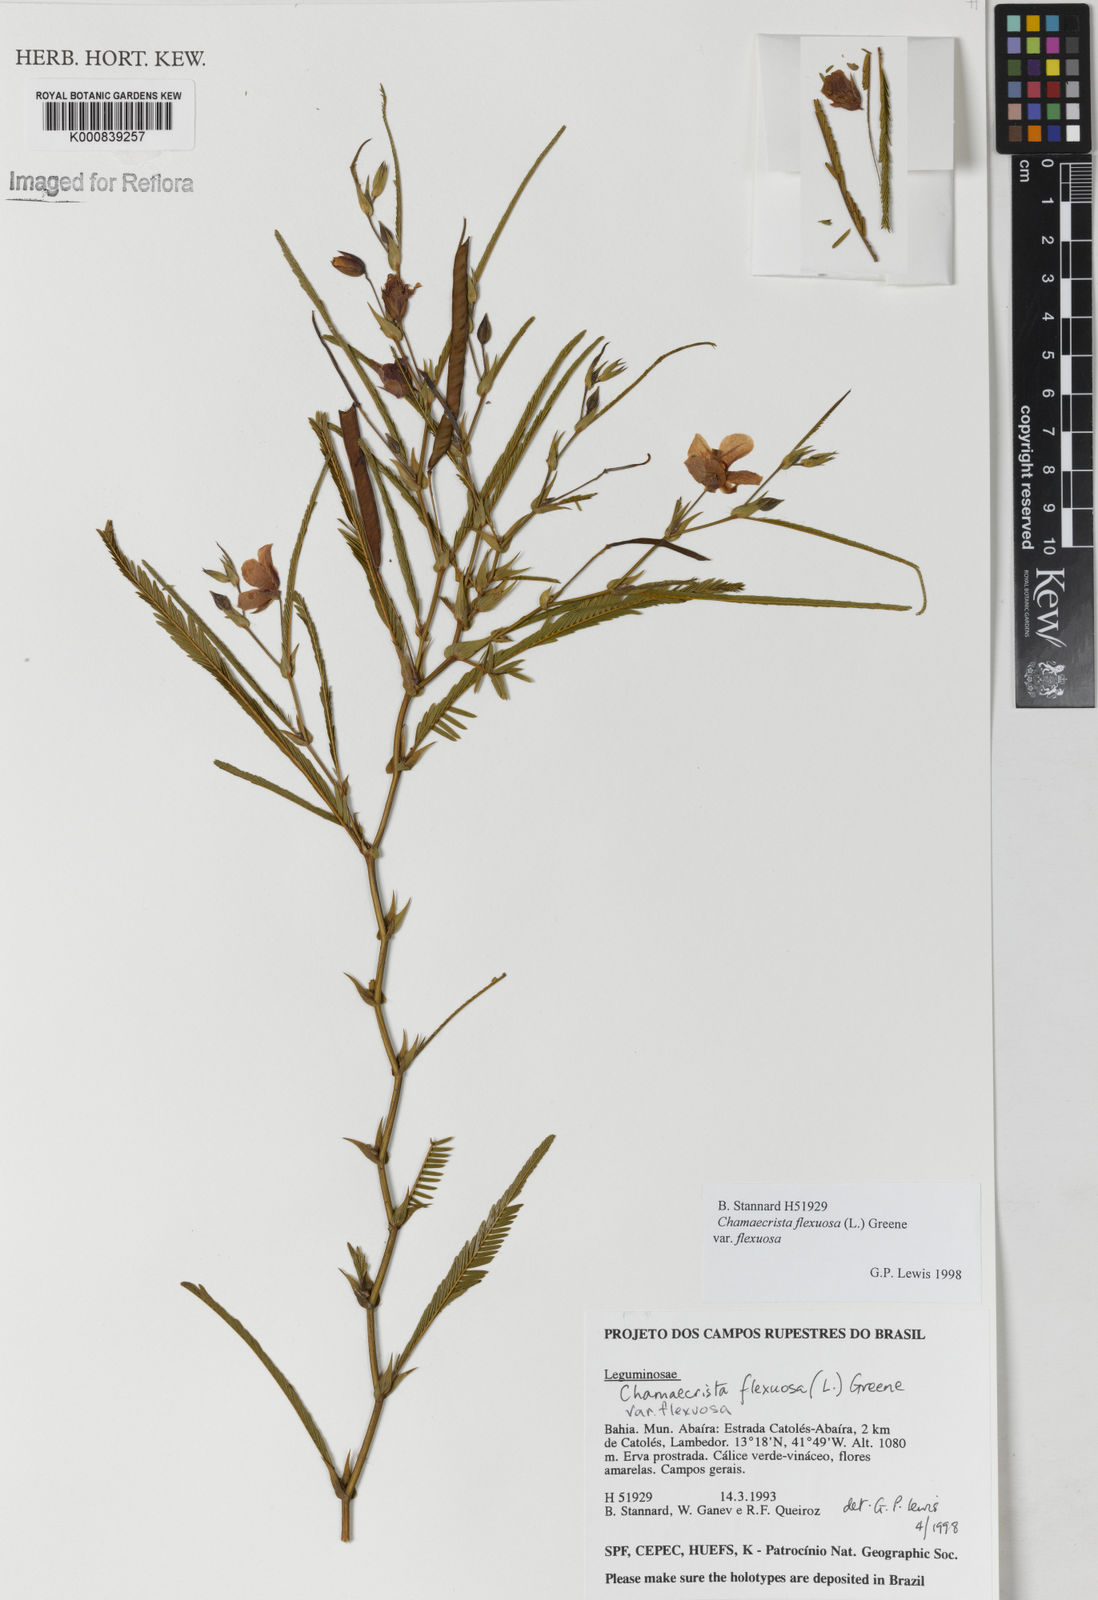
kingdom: Plantae
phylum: Tracheophyta
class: Magnoliopsida
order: Fabales
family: Fabaceae
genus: Chamaecrista
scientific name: Chamaecrista flexuosa
